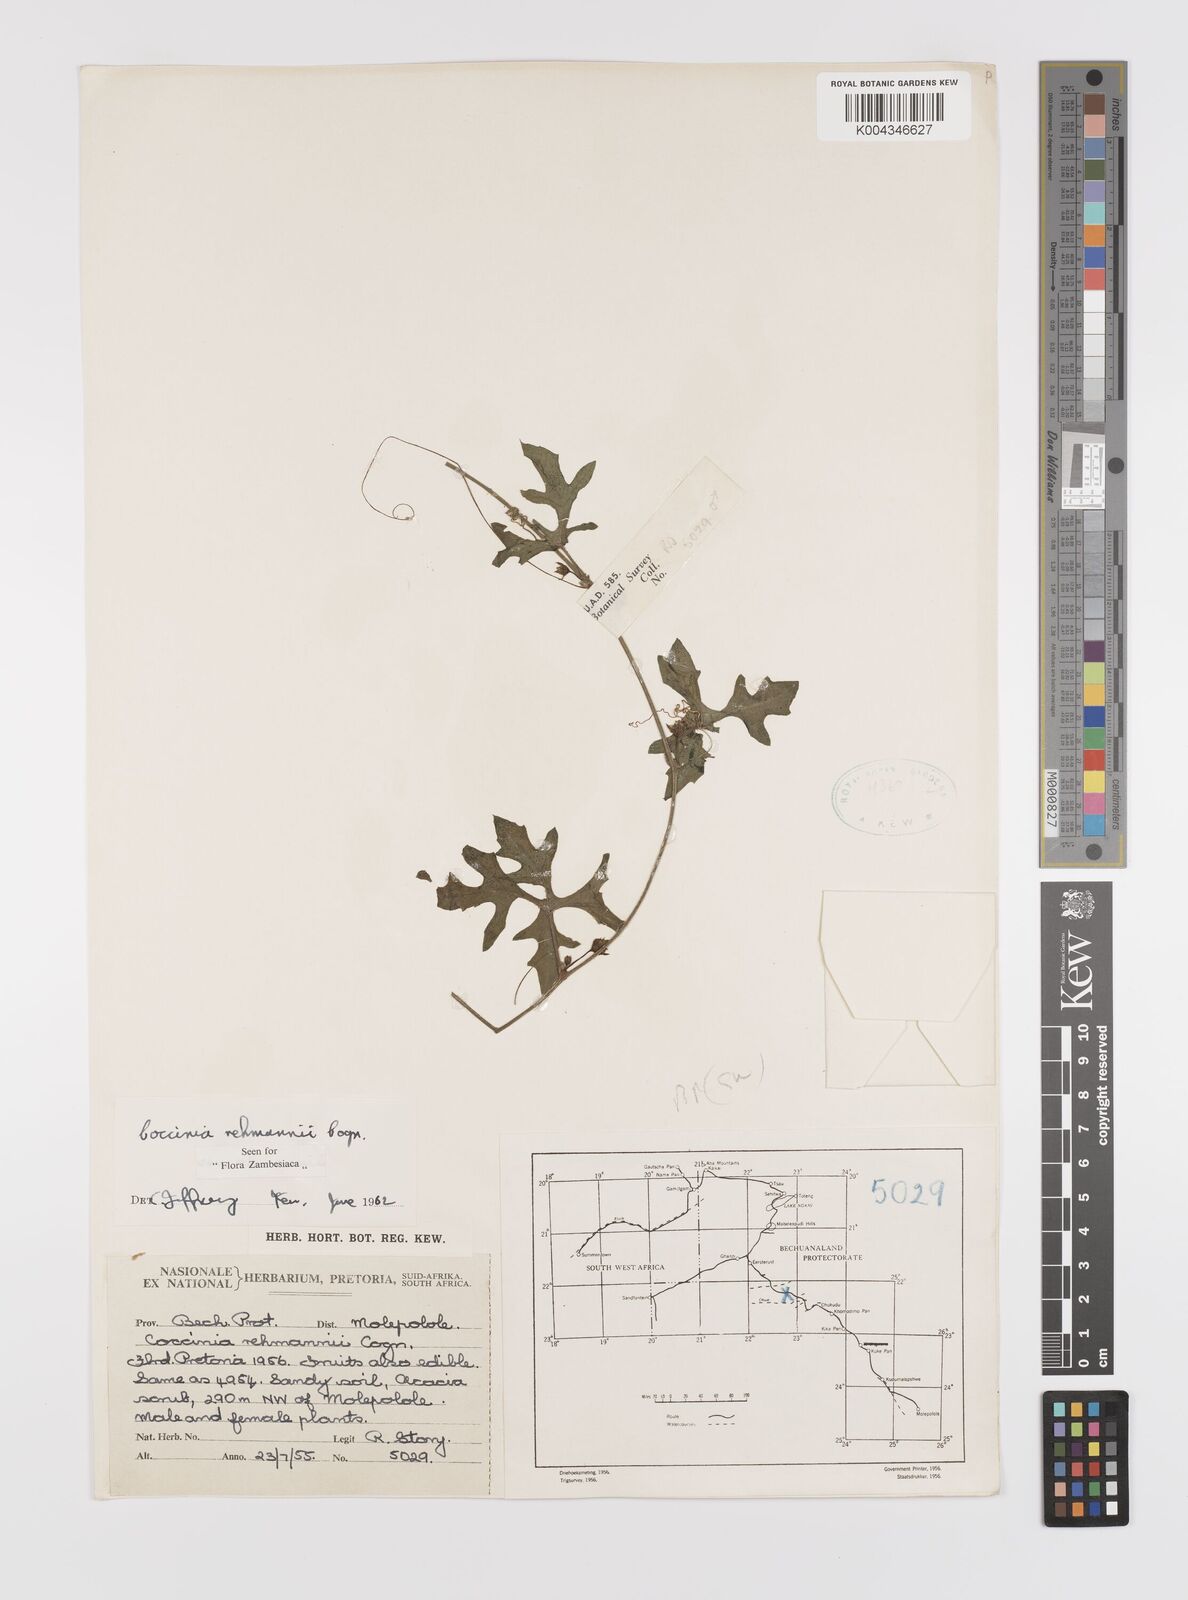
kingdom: Plantae
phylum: Tracheophyta
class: Magnoliopsida
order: Cucurbitales
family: Cucurbitaceae
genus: Coccinia
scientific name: Coccinia rehmannii
